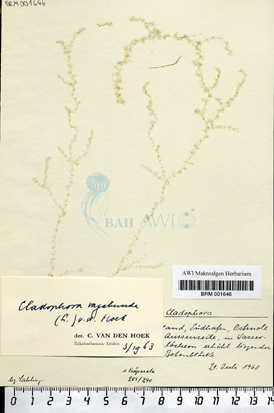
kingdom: Plantae
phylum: Chlorophyta
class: Ulvophyceae
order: Cladophorales
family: Cladophoraceae
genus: Cladophora
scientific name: Cladophora vagabunda
